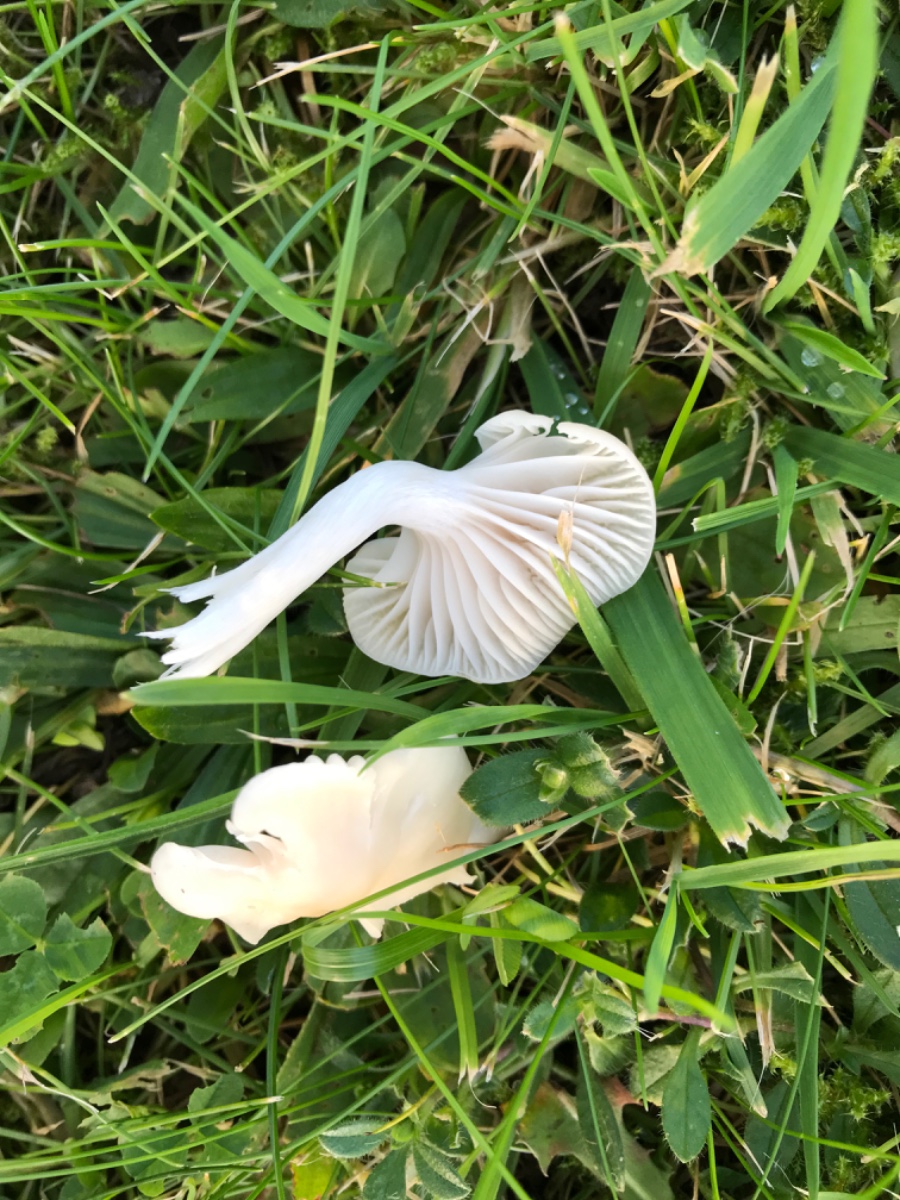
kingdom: Fungi
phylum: Basidiomycota
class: Agaricomycetes
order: Agaricales
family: Hygrophoraceae
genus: Cuphophyllus
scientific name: Cuphophyllus virgineus
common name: snehvid vokshat
